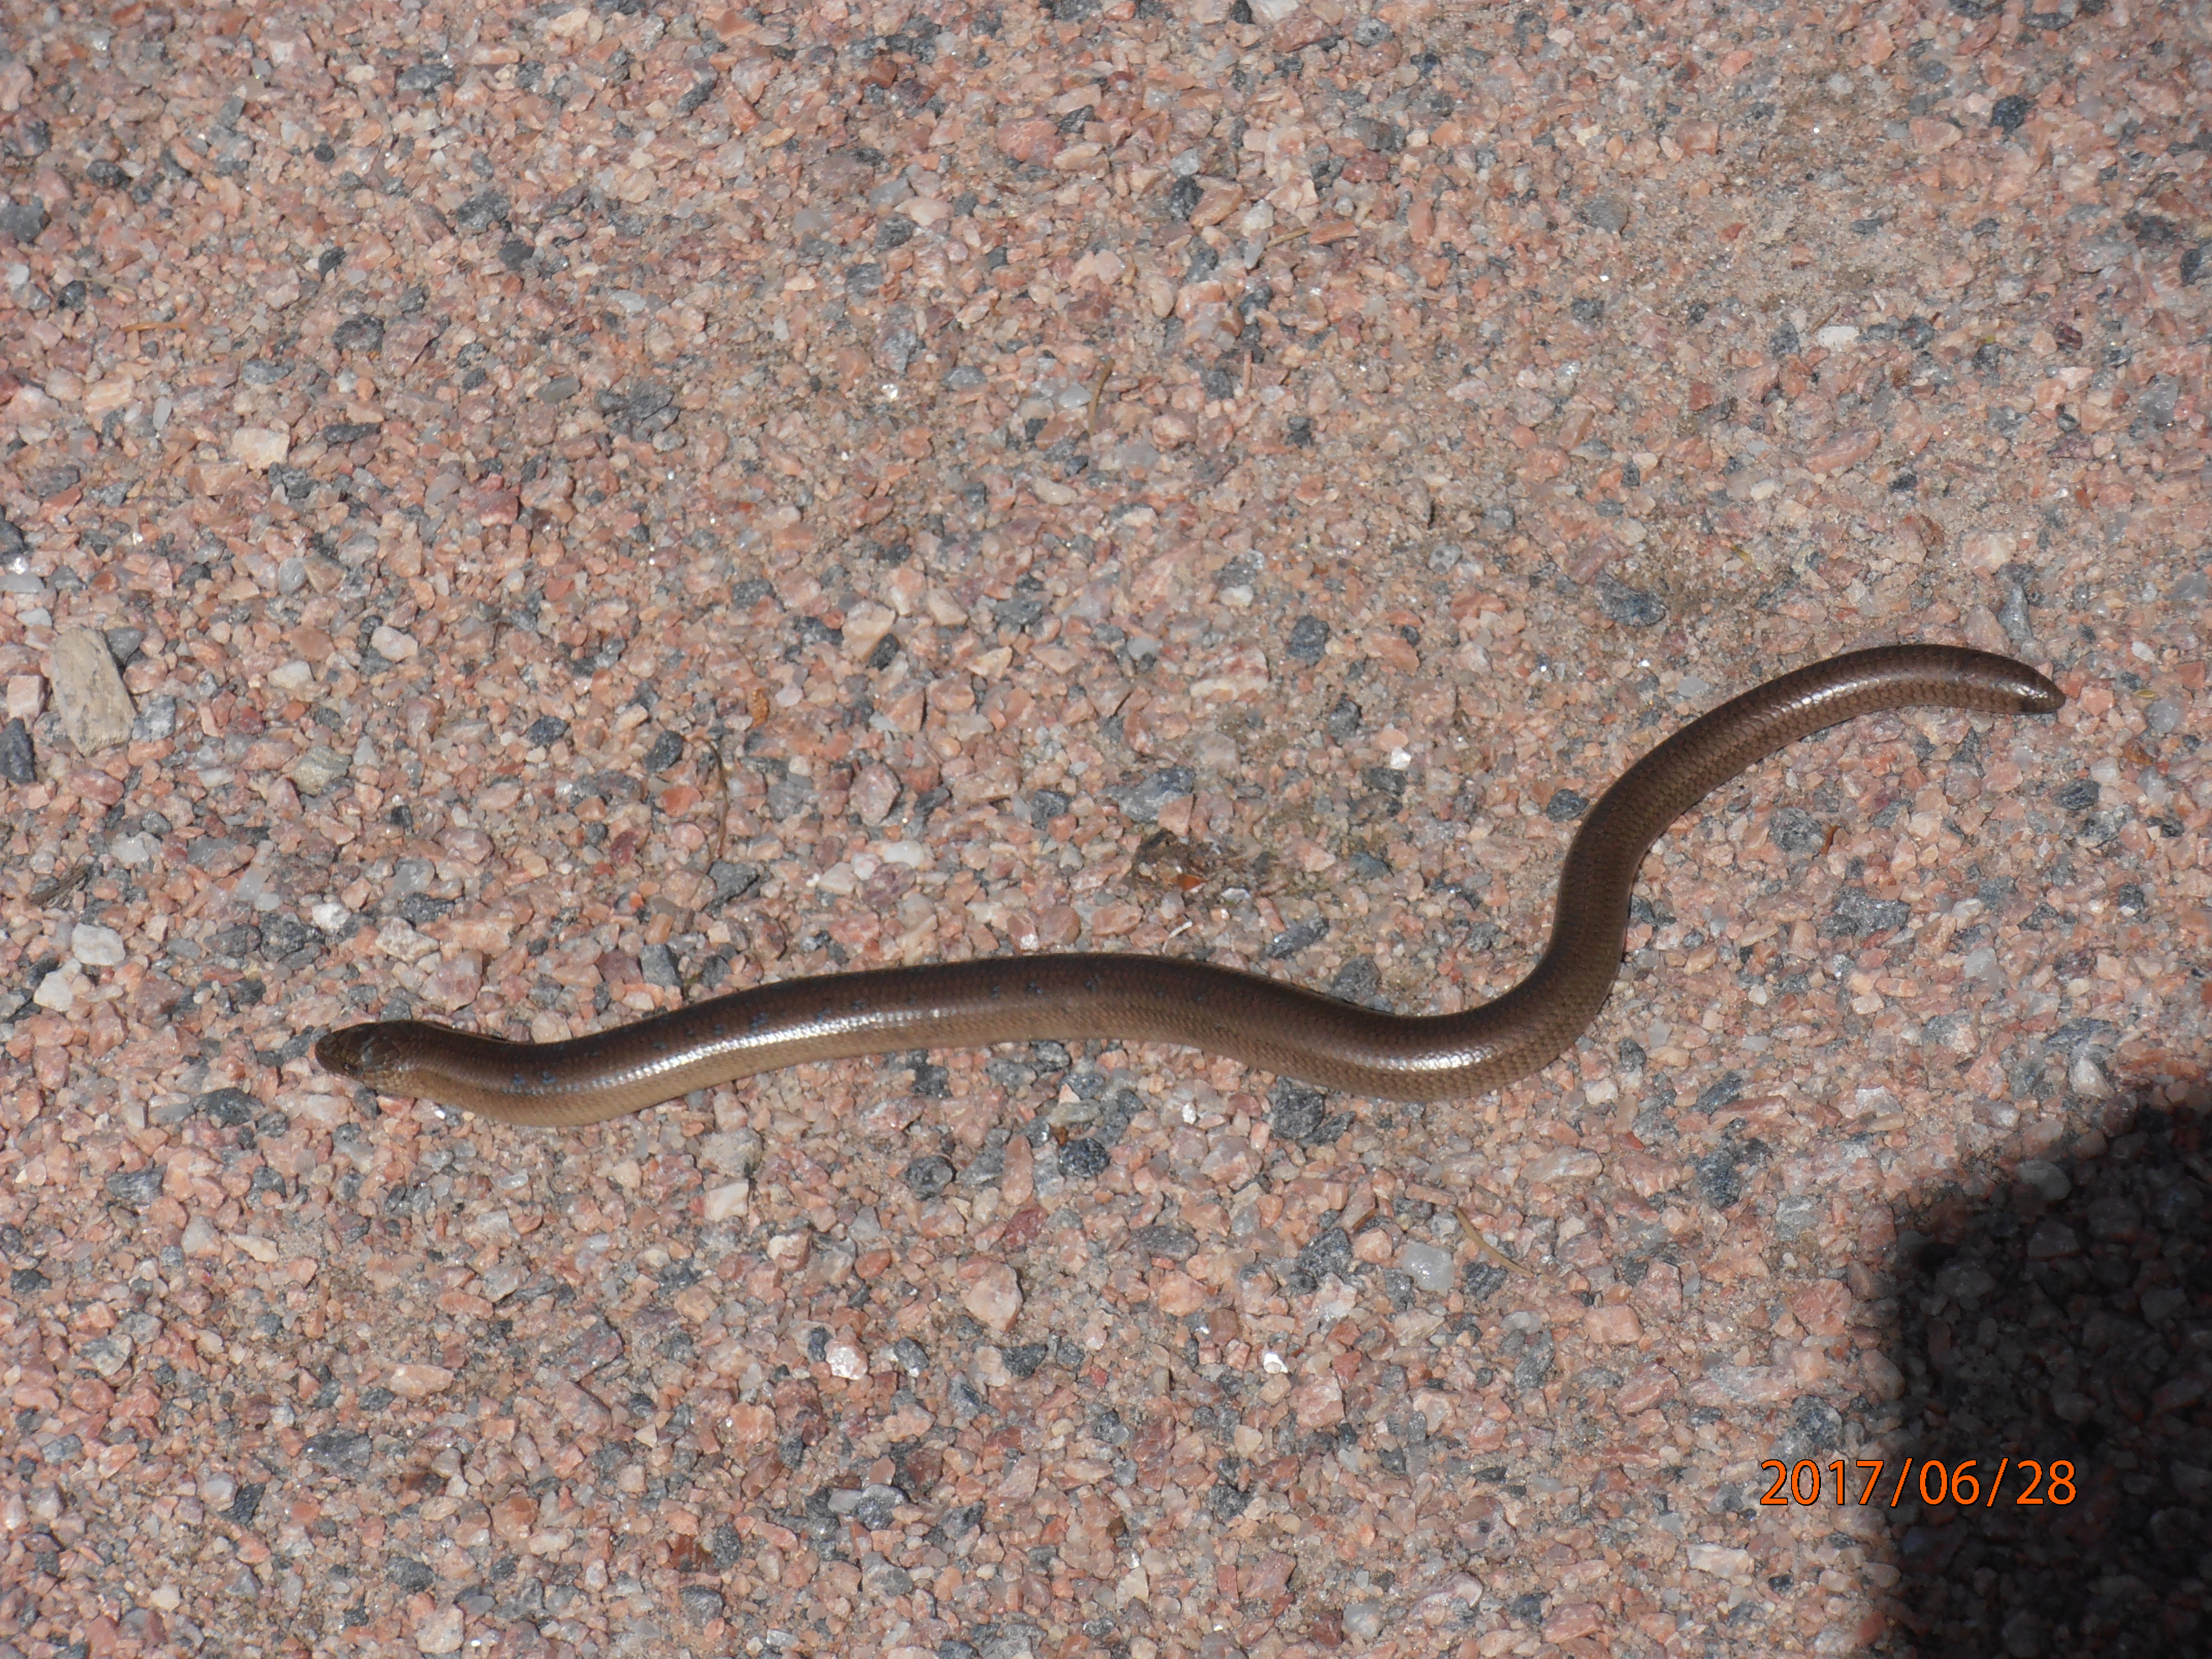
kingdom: Animalia
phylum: Chordata
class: Squamata
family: Anguidae
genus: Anguis
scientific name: Anguis colchica
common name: Slow worm
